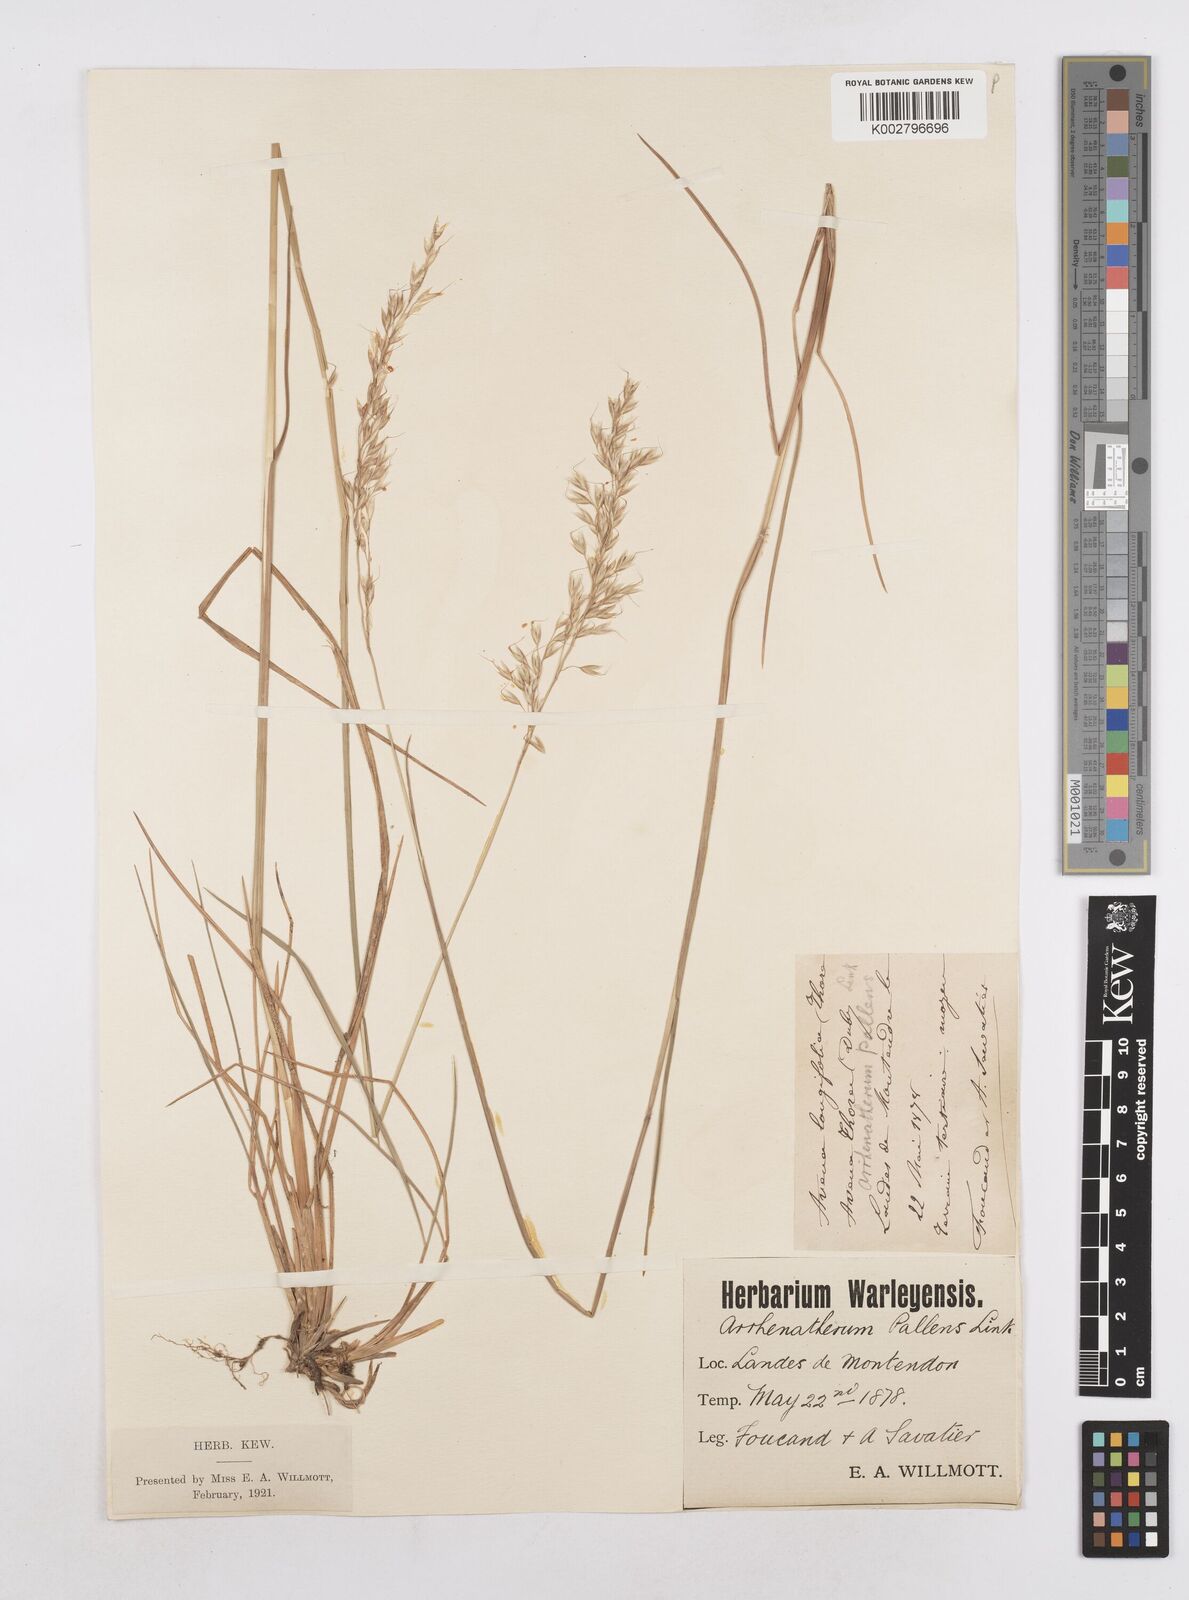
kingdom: Plantae
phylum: Tracheophyta
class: Liliopsida
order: Poales
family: Poaceae
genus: Arrhenatherum
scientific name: Arrhenatherum longifolium
